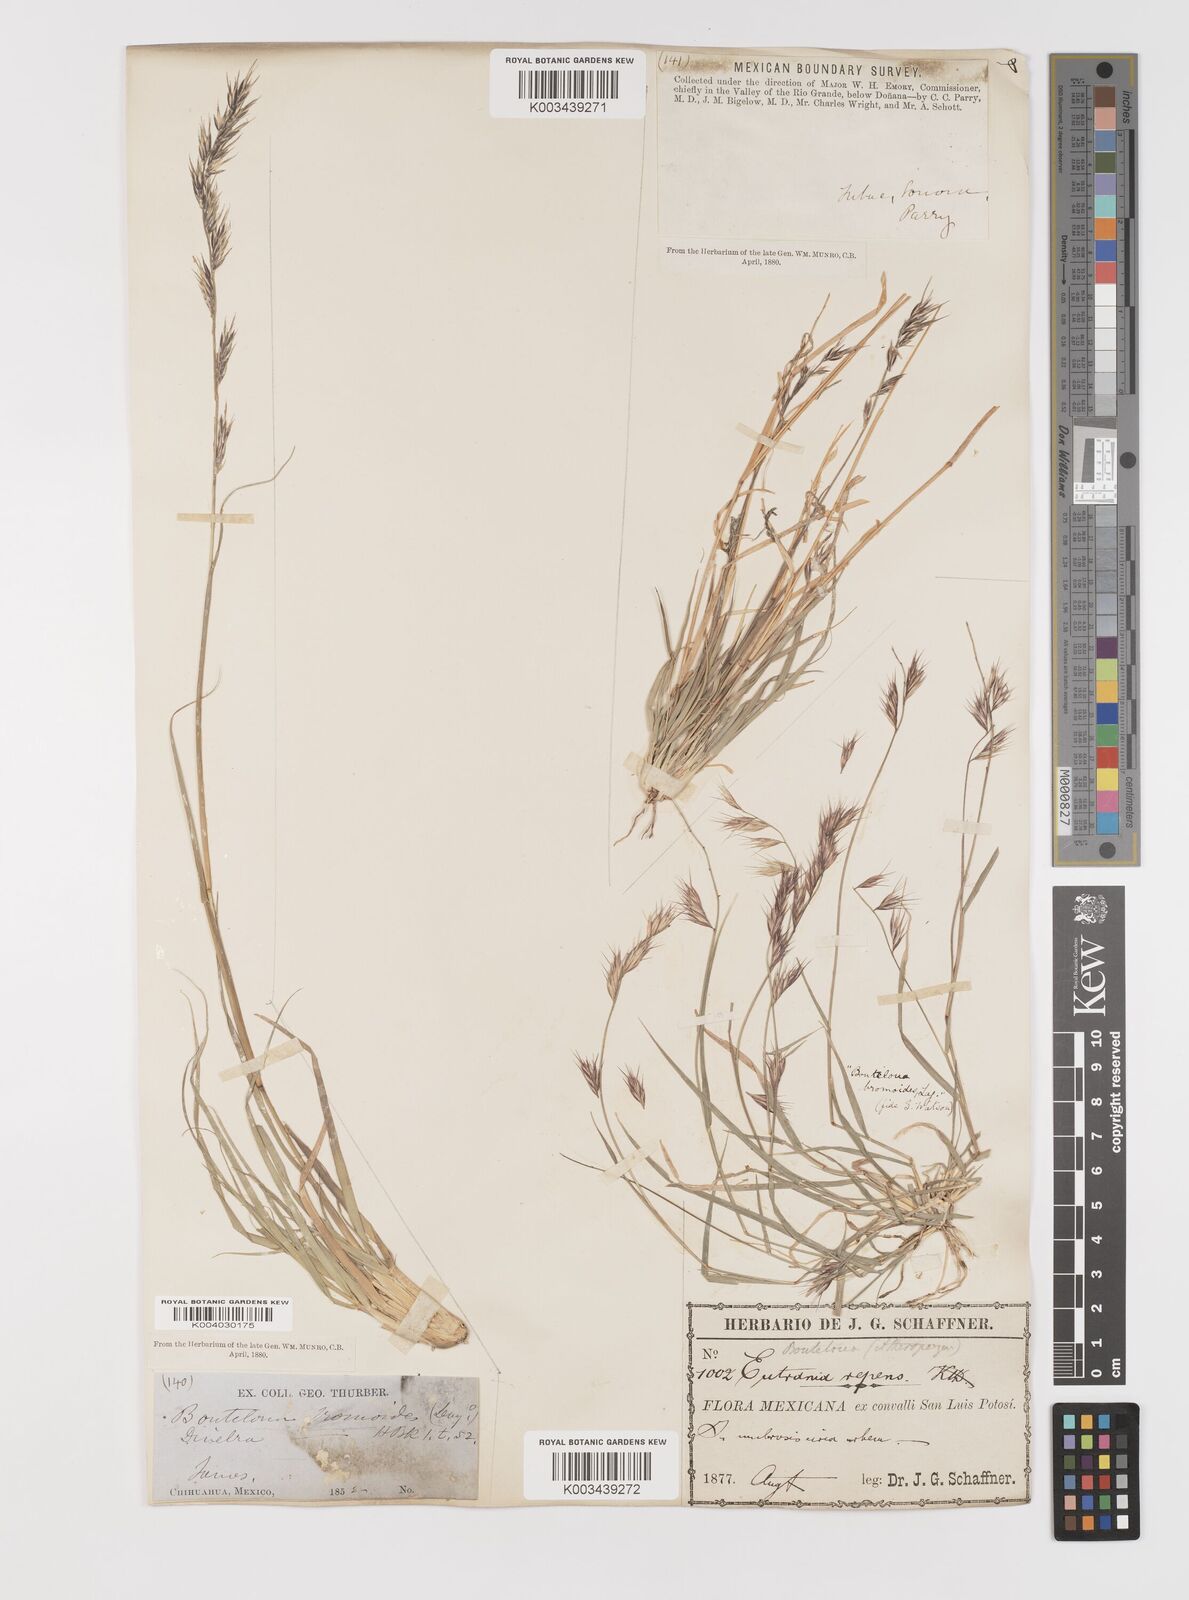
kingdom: Plantae
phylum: Tracheophyta
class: Liliopsida
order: Poales
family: Poaceae
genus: Bouteloua
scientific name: Bouteloua repens
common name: Slender grama
